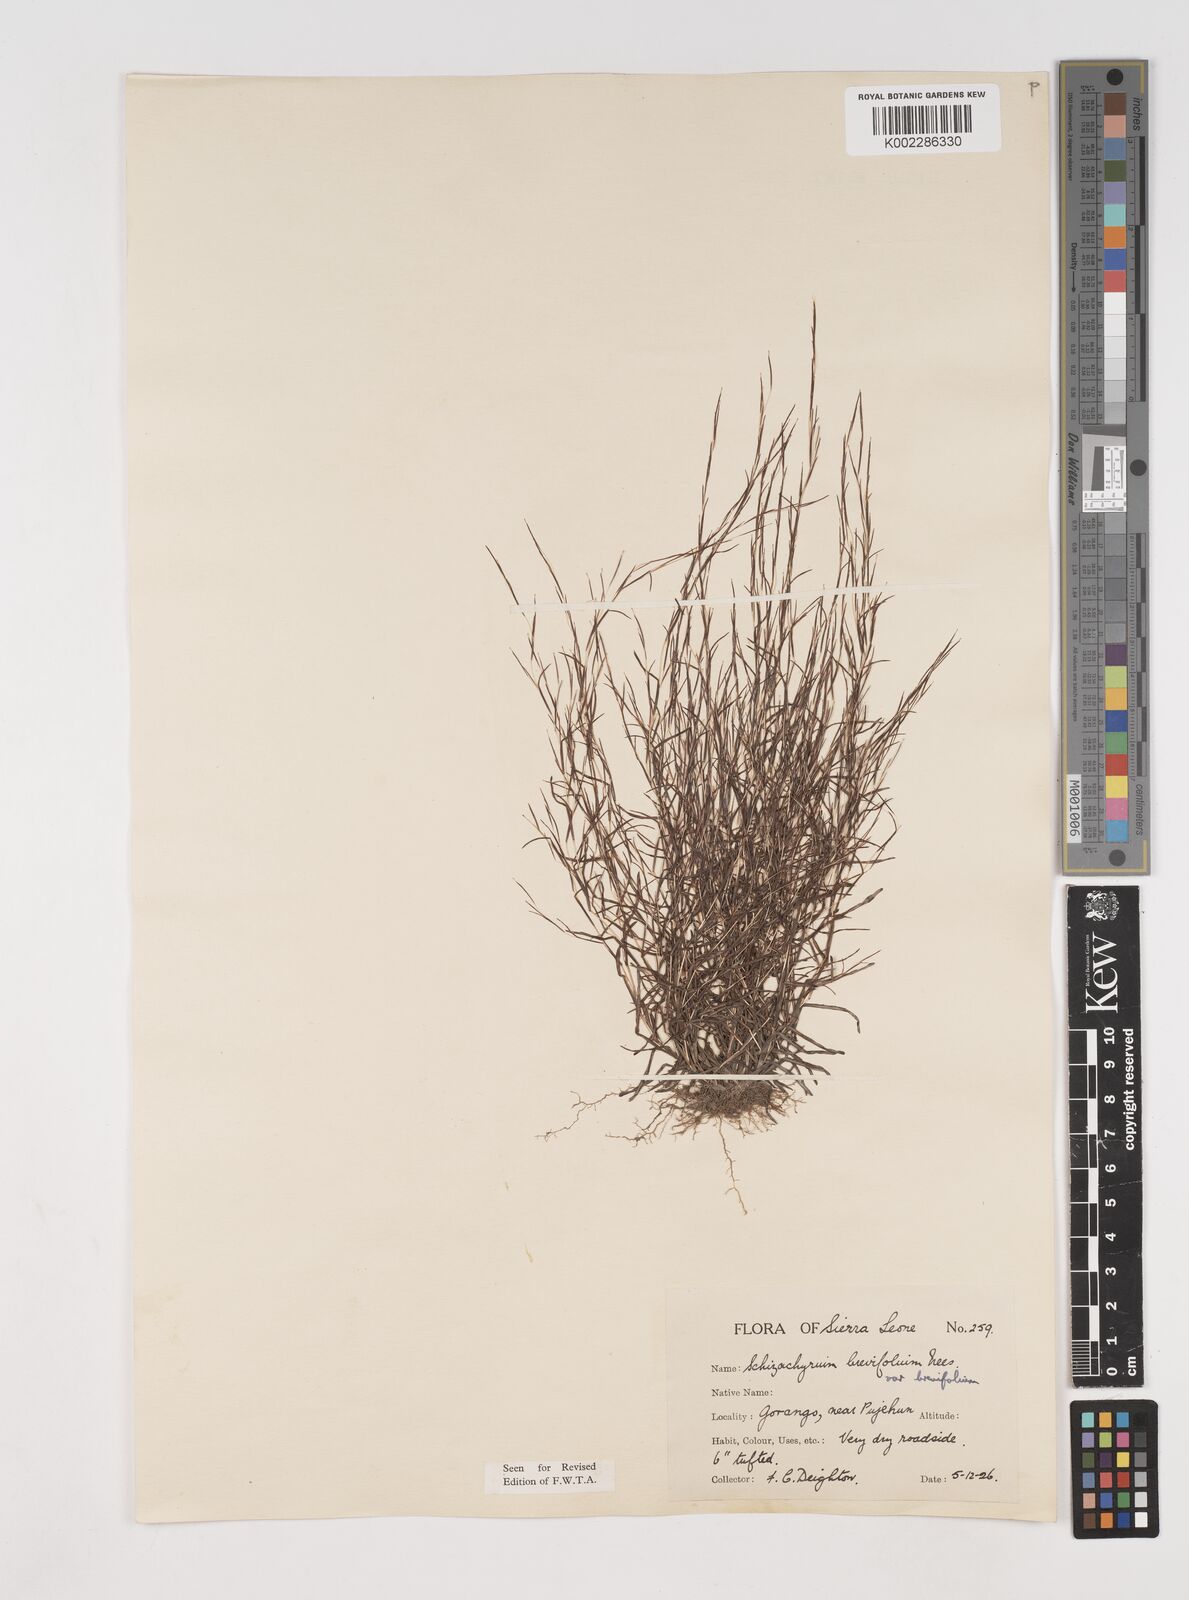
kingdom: Plantae
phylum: Tracheophyta
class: Liliopsida
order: Poales
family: Poaceae
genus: Schizachyrium
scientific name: Schizachyrium brevifolium
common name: Serillo dulce
